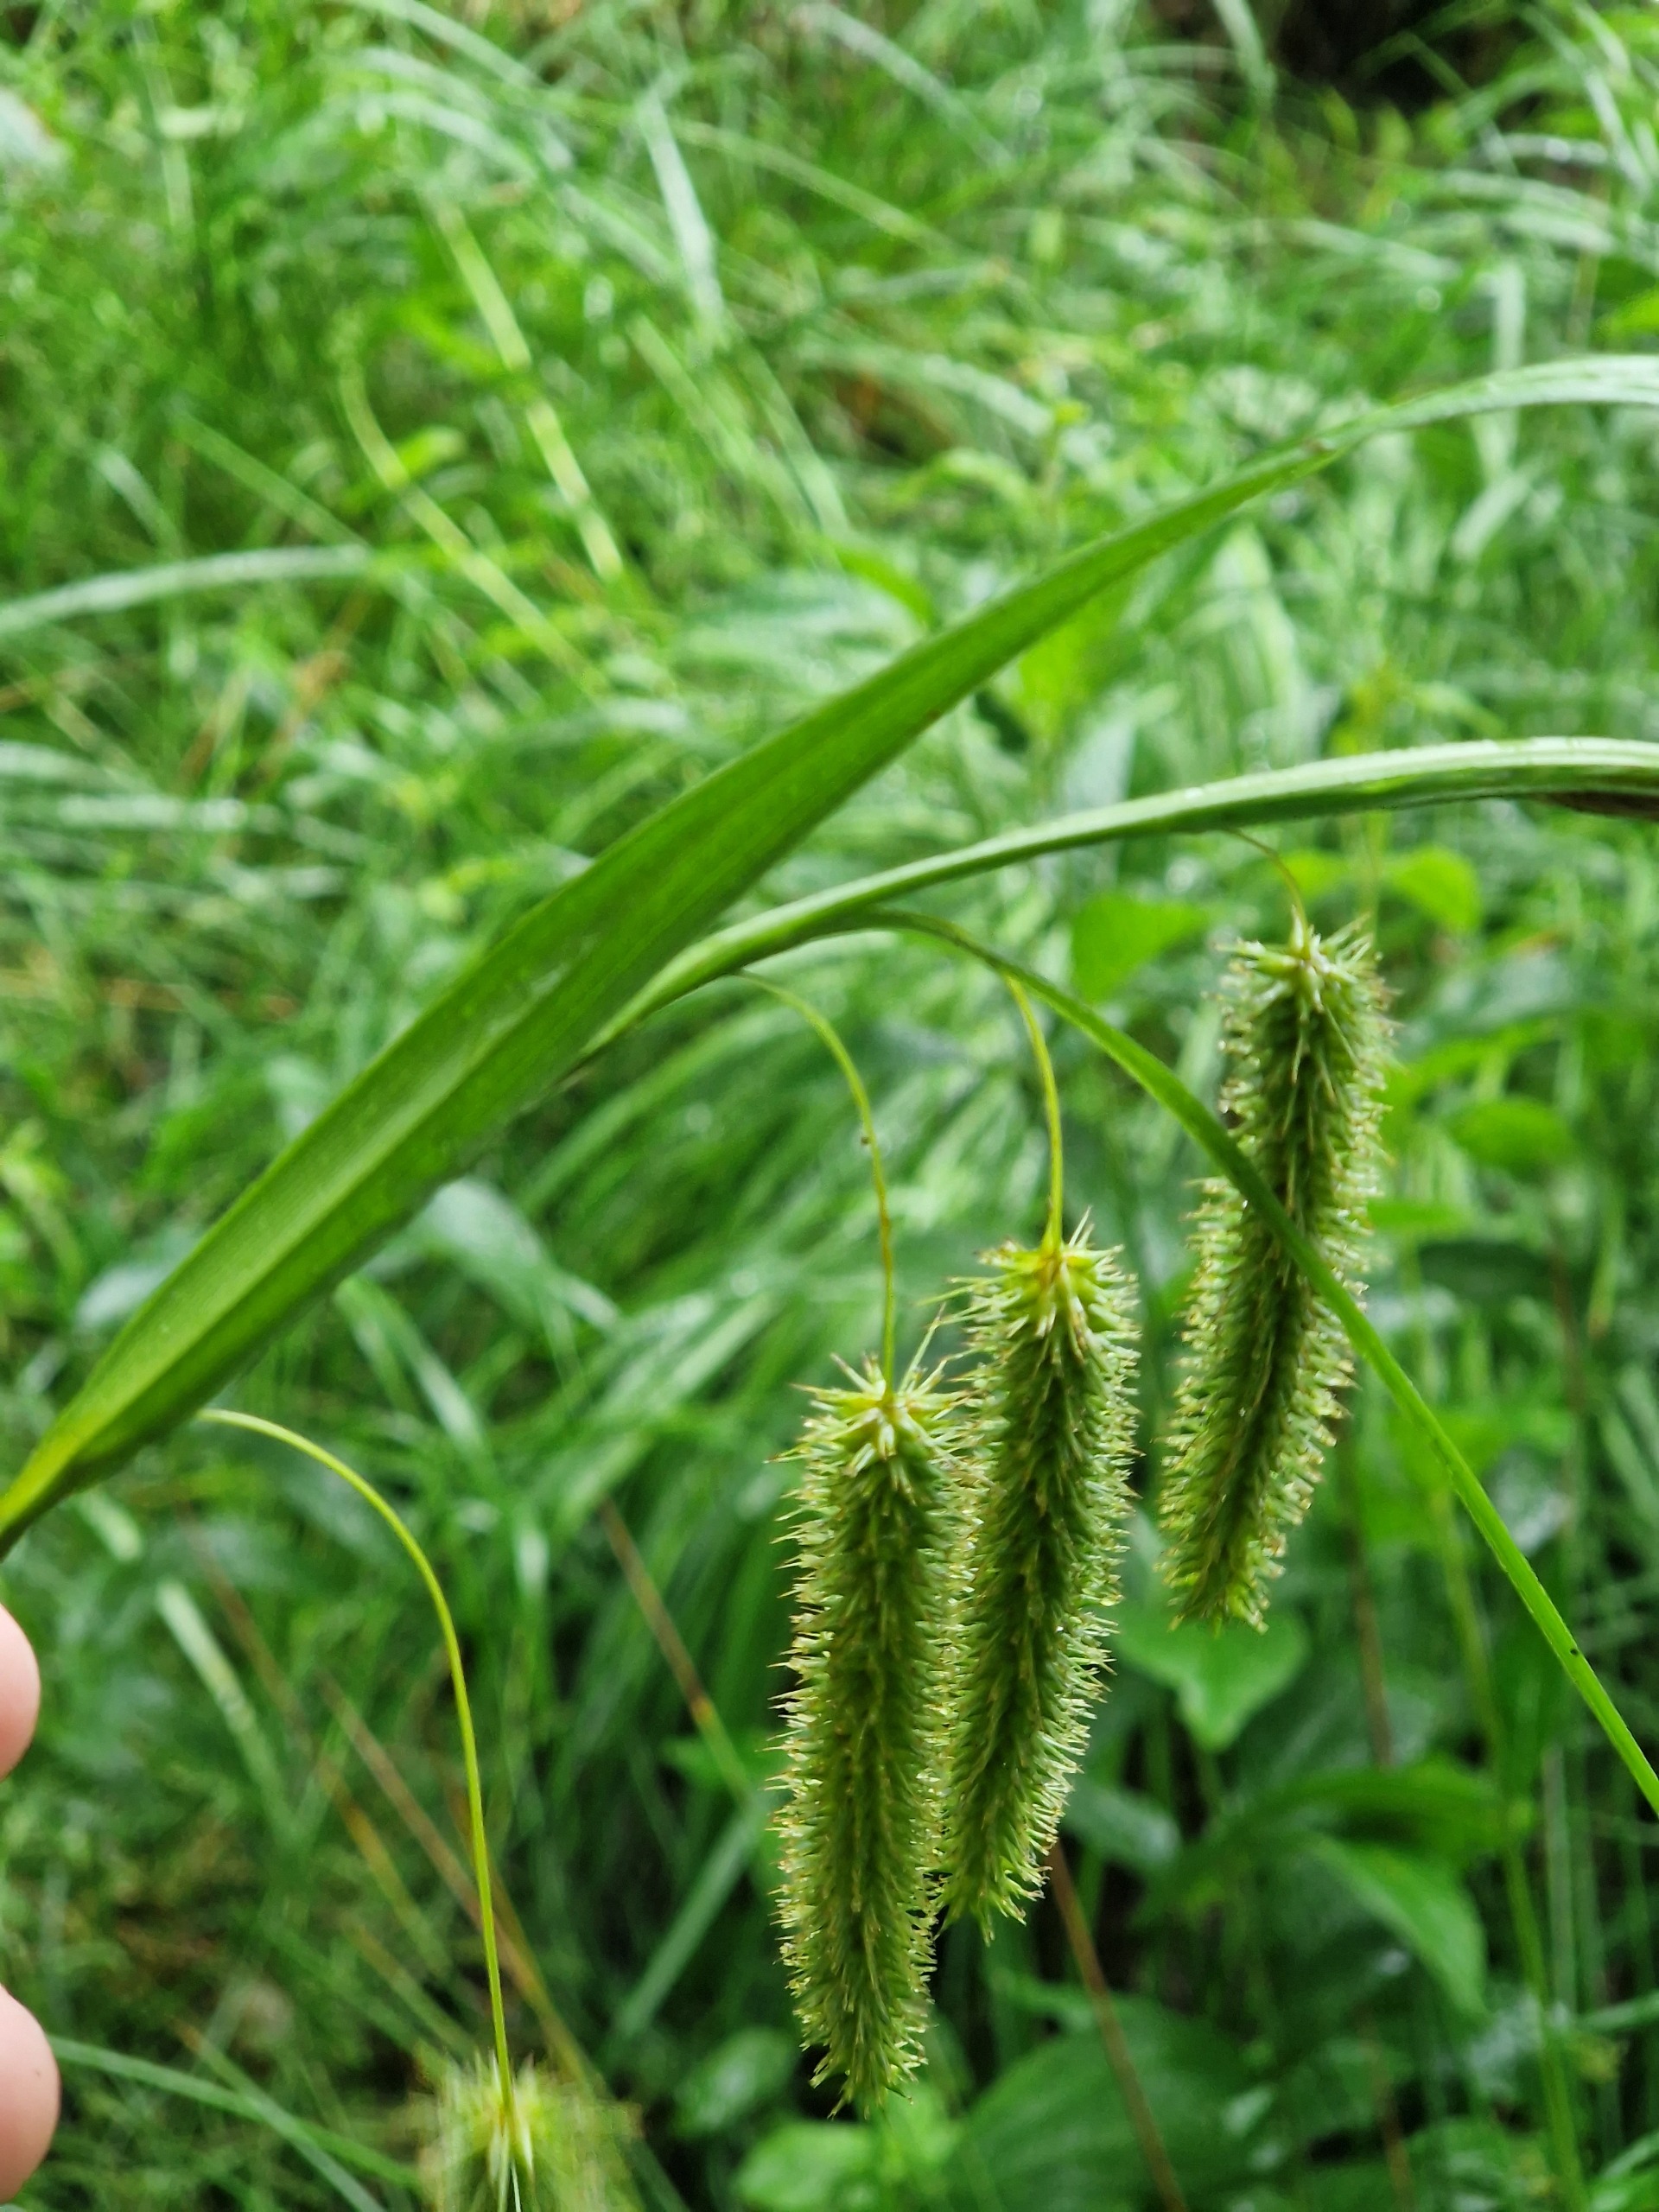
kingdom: Plantae
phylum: Tracheophyta
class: Liliopsida
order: Poales
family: Cyperaceae
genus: Carex
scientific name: Carex pseudocyperus
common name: Knippe-star
